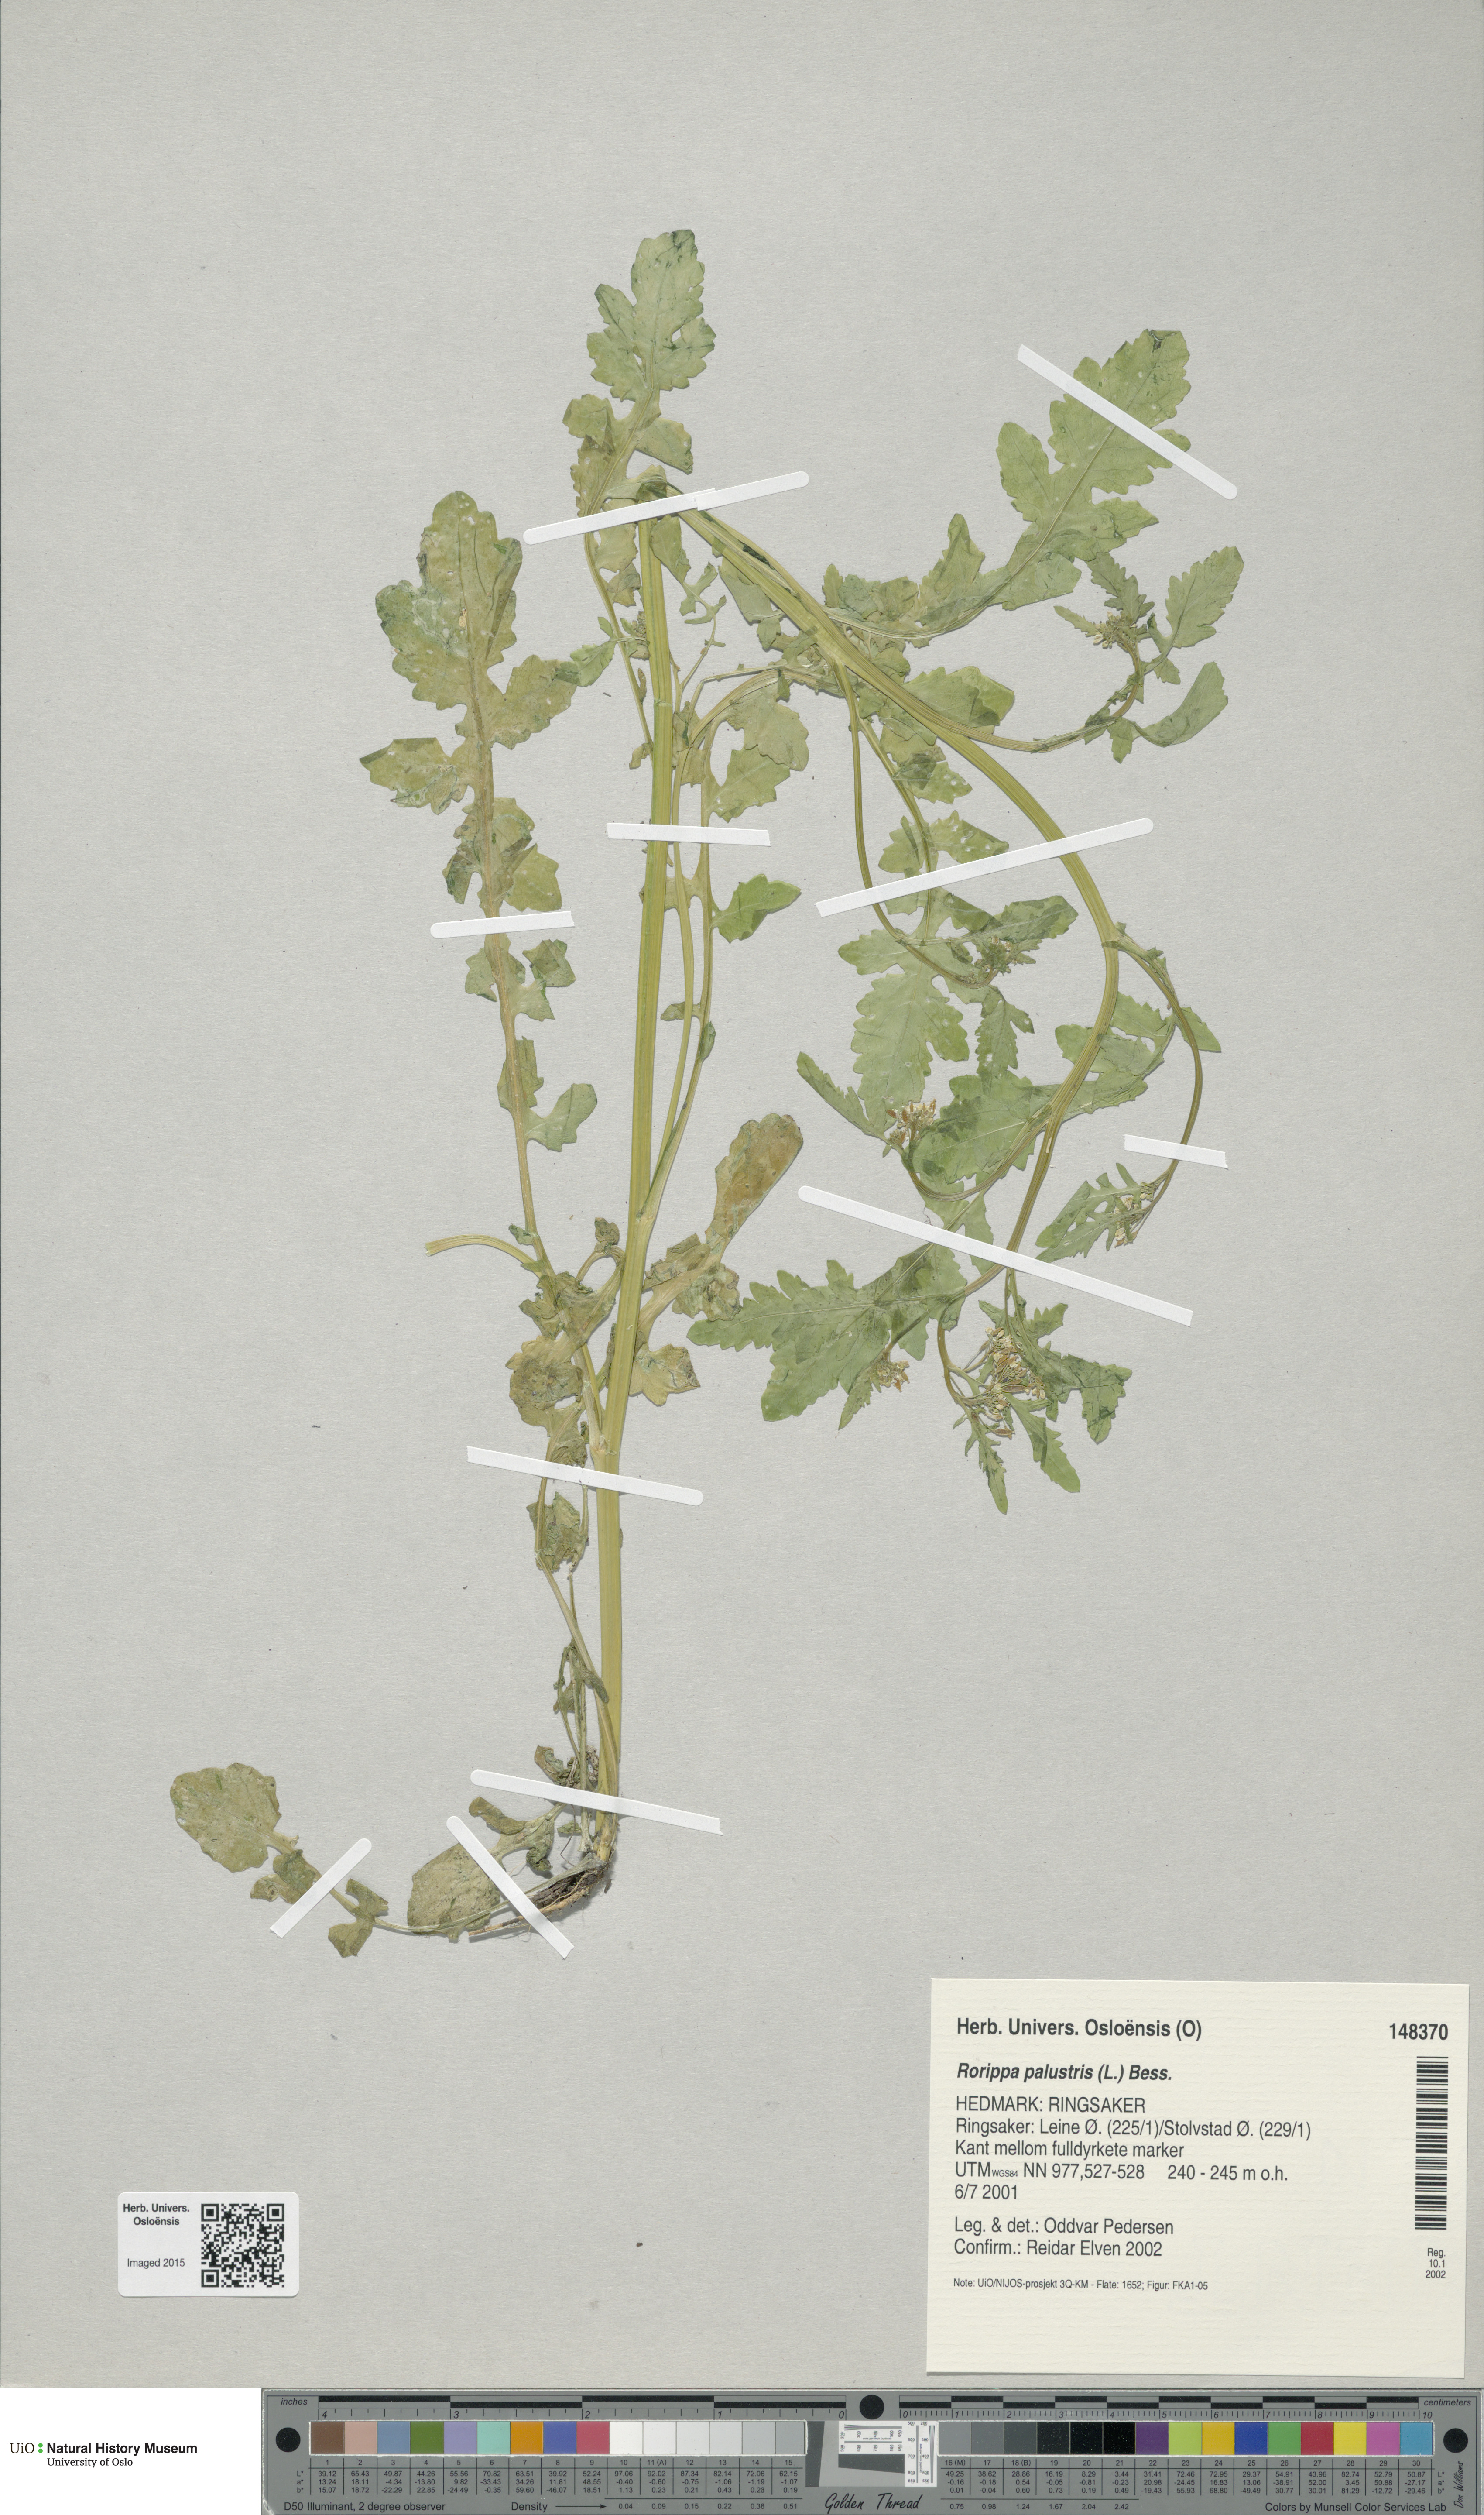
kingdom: Plantae
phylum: Tracheophyta
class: Magnoliopsida
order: Brassicales
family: Brassicaceae
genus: Rorippa
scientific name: Rorippa palustris
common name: Marsh yellow-cress
